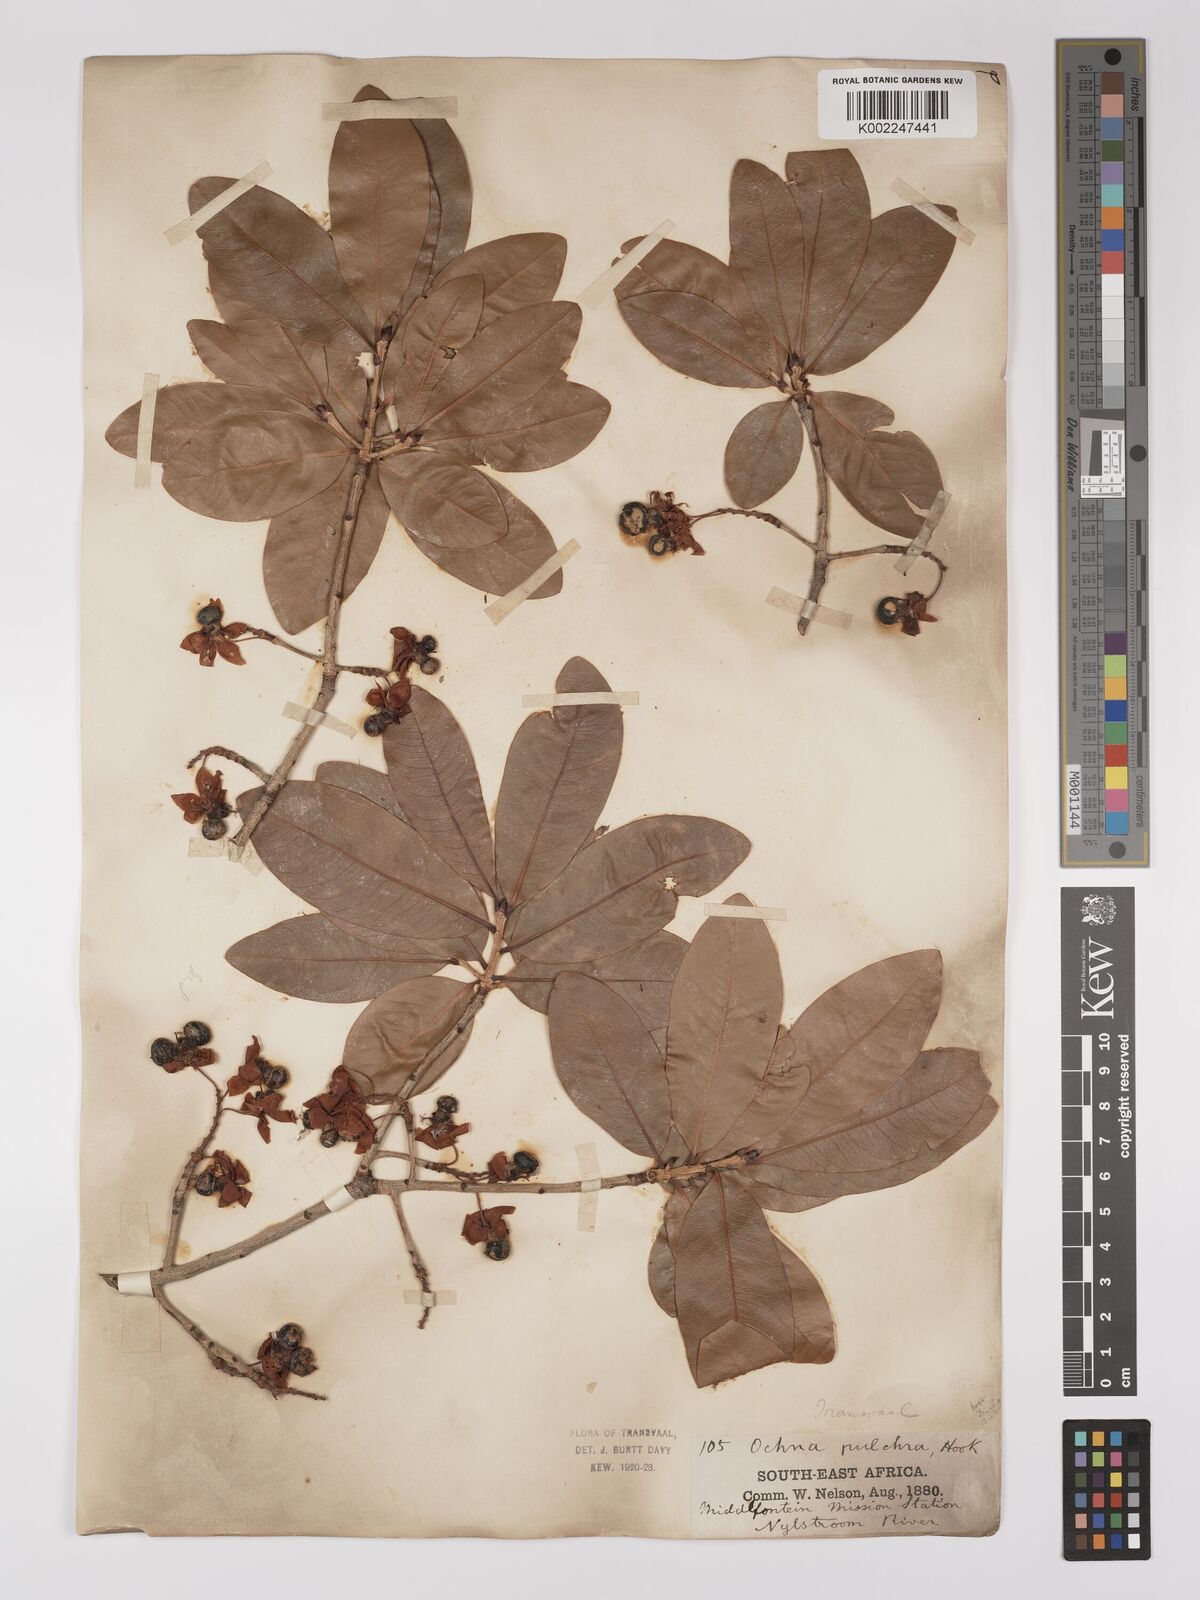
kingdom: Plantae
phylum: Tracheophyta
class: Magnoliopsida
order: Malpighiales
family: Ochnaceae
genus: Ochna
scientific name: Ochna pulchra
